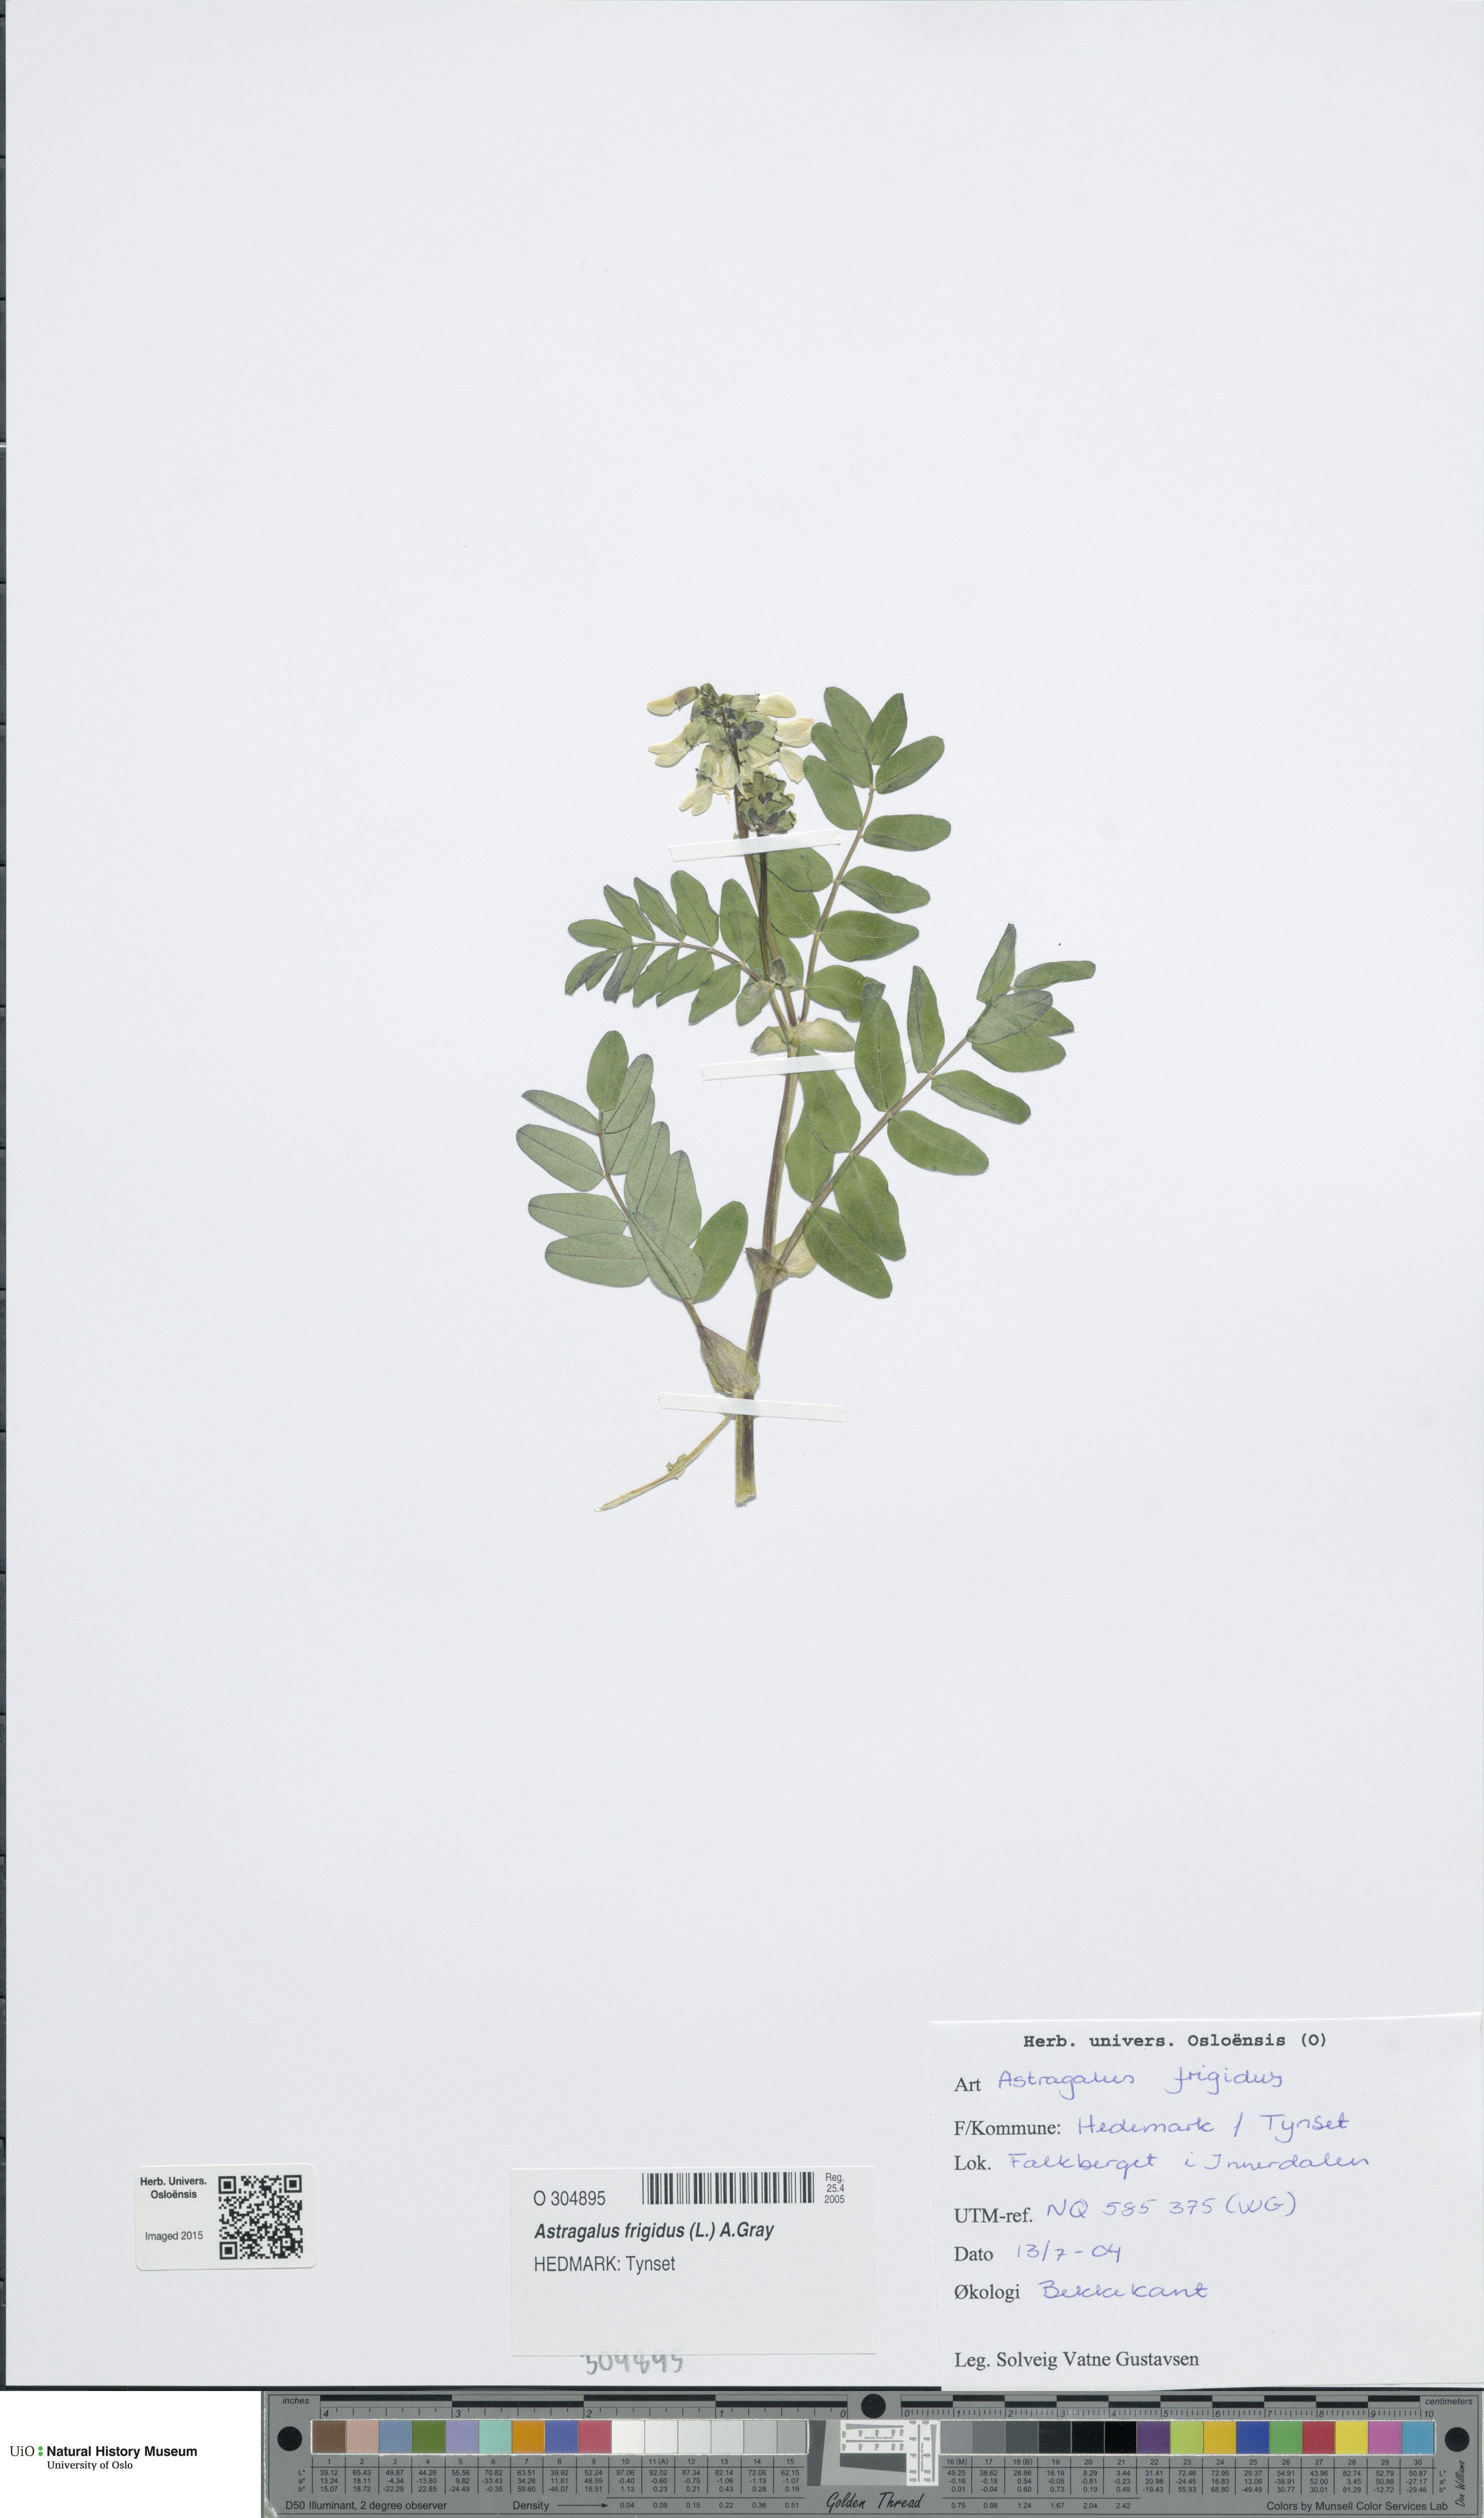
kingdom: Plantae
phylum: Tracheophyta
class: Magnoliopsida
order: Fabales
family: Fabaceae
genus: Astragalus
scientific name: Astragalus frigidus
